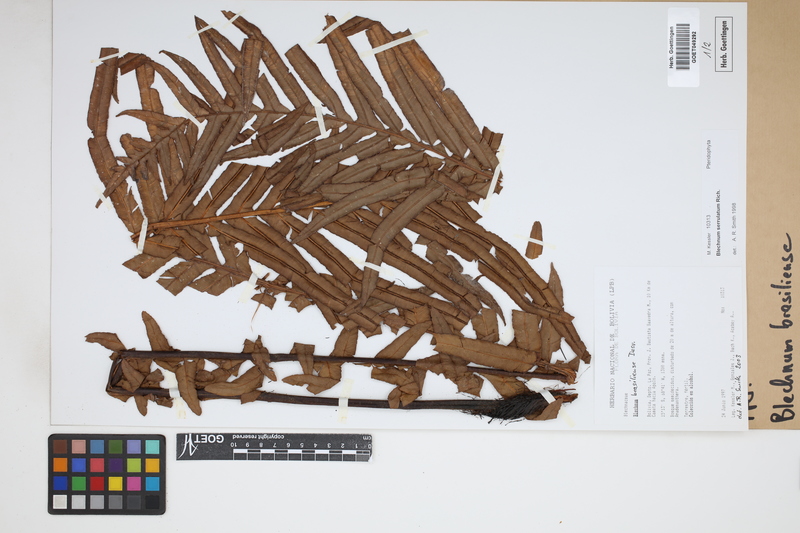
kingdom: Plantae
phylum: Tracheophyta
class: Polypodiopsida
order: Polypodiales
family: Blechnaceae
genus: Neoblechnum
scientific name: Neoblechnum brasiliense
